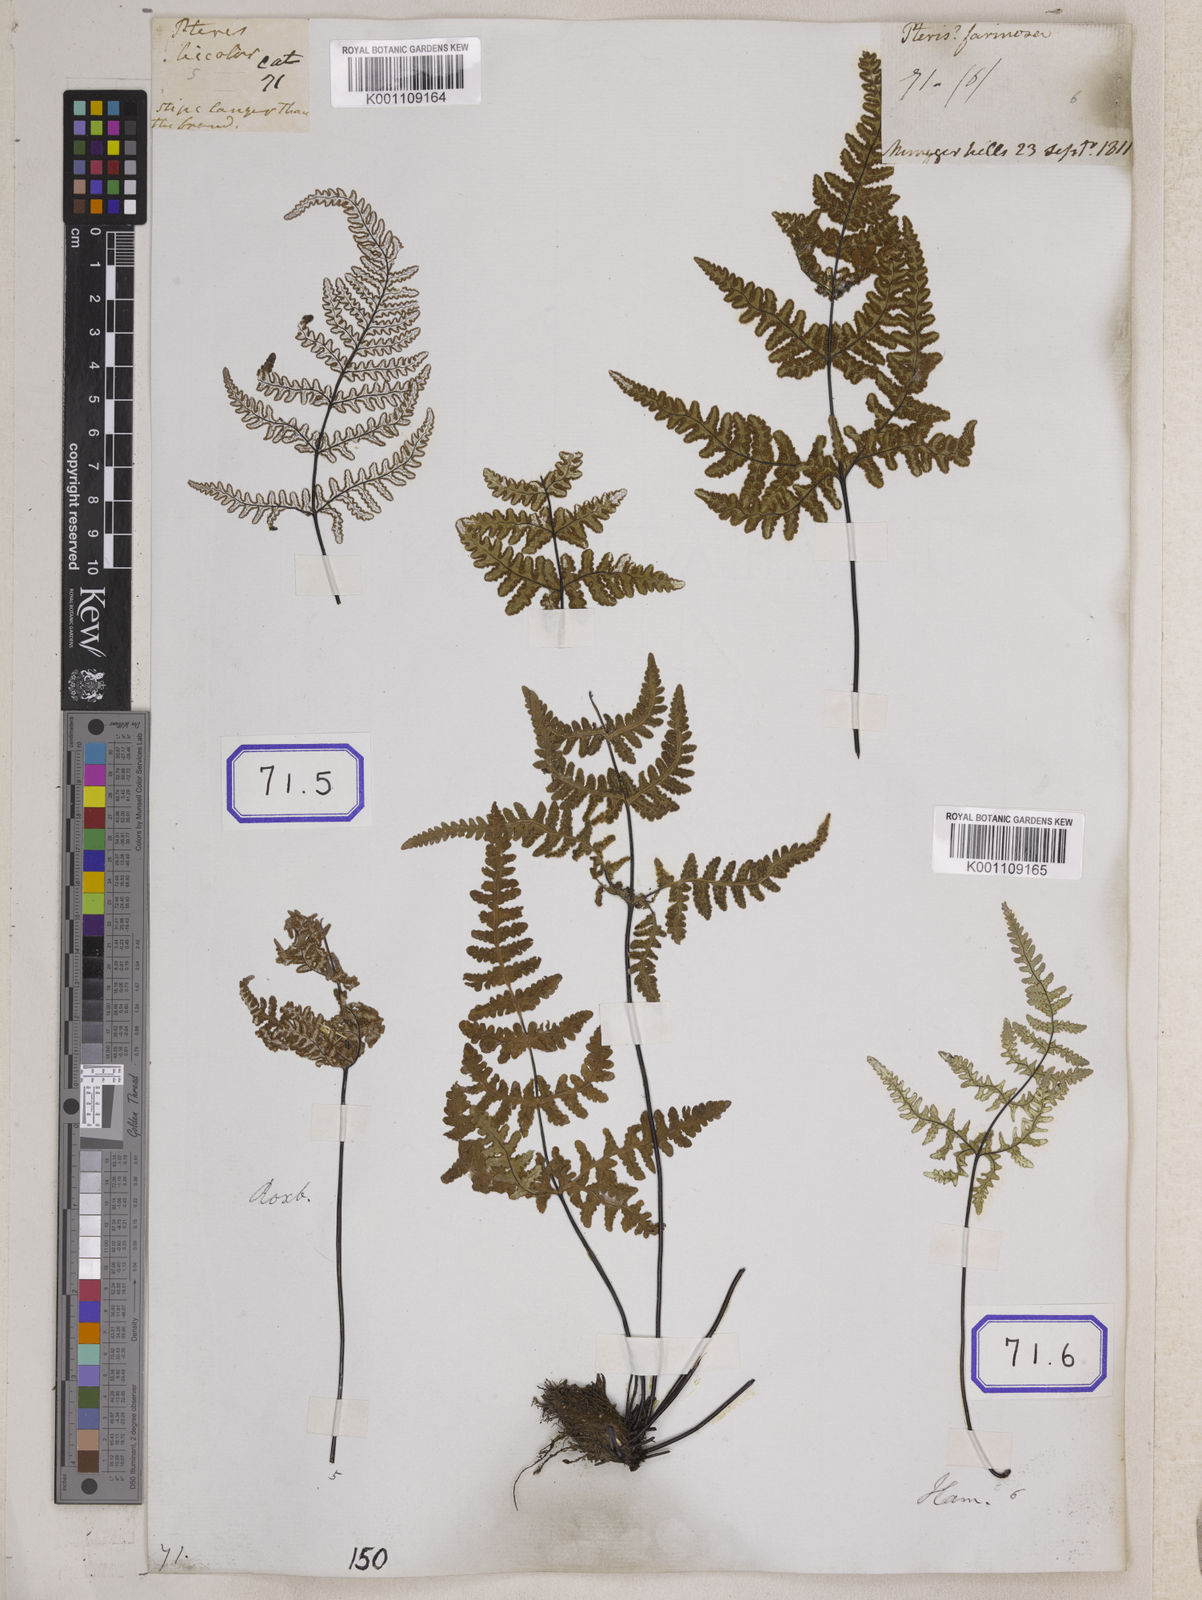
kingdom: Plantae
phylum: Tracheophyta
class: Polypodiopsida
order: Polypodiales
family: Pteridaceae
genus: Argyrochosma
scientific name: Argyrochosma dealbata
